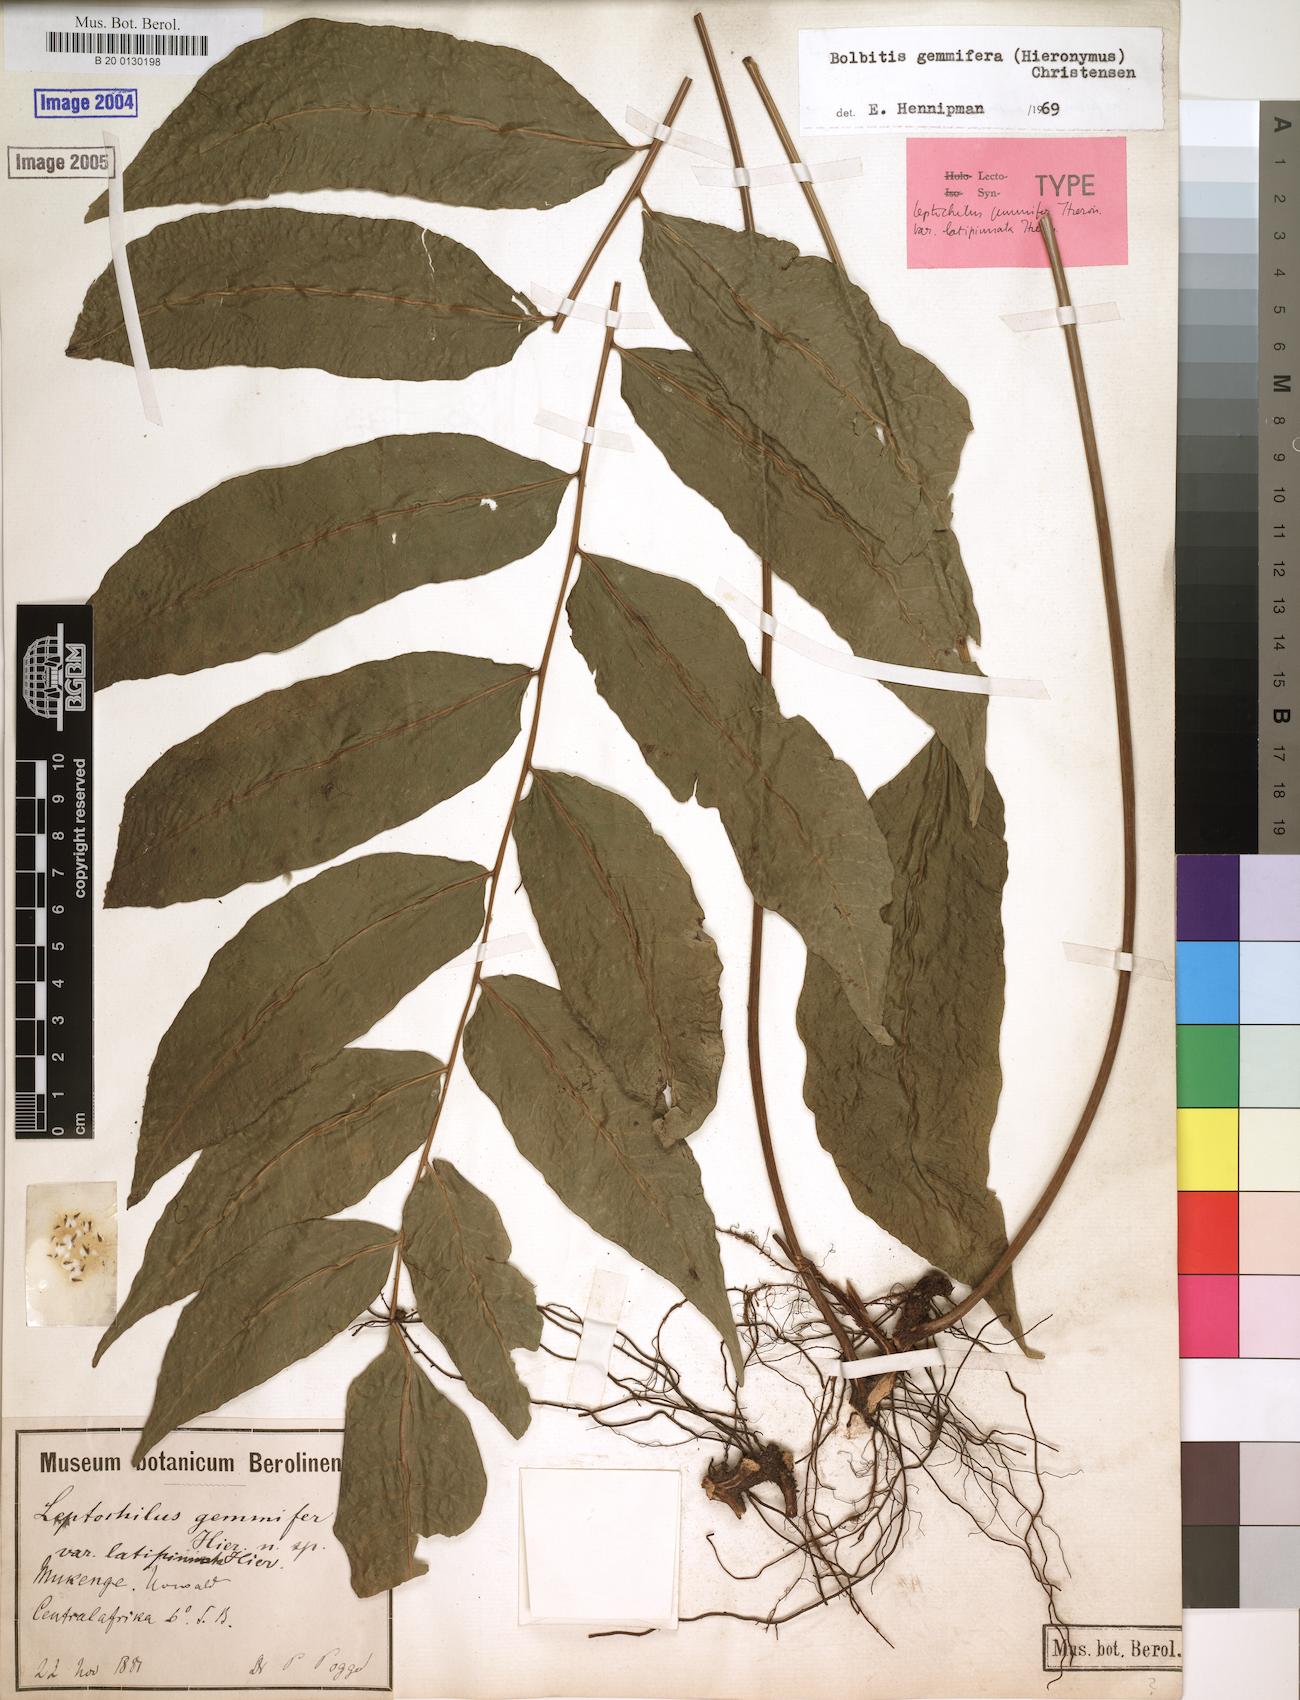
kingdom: Plantae
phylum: Tracheophyta
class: Polypodiopsida
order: Polypodiales
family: Dryopteridaceae
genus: Bolbitis
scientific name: Bolbitis gemmifer
